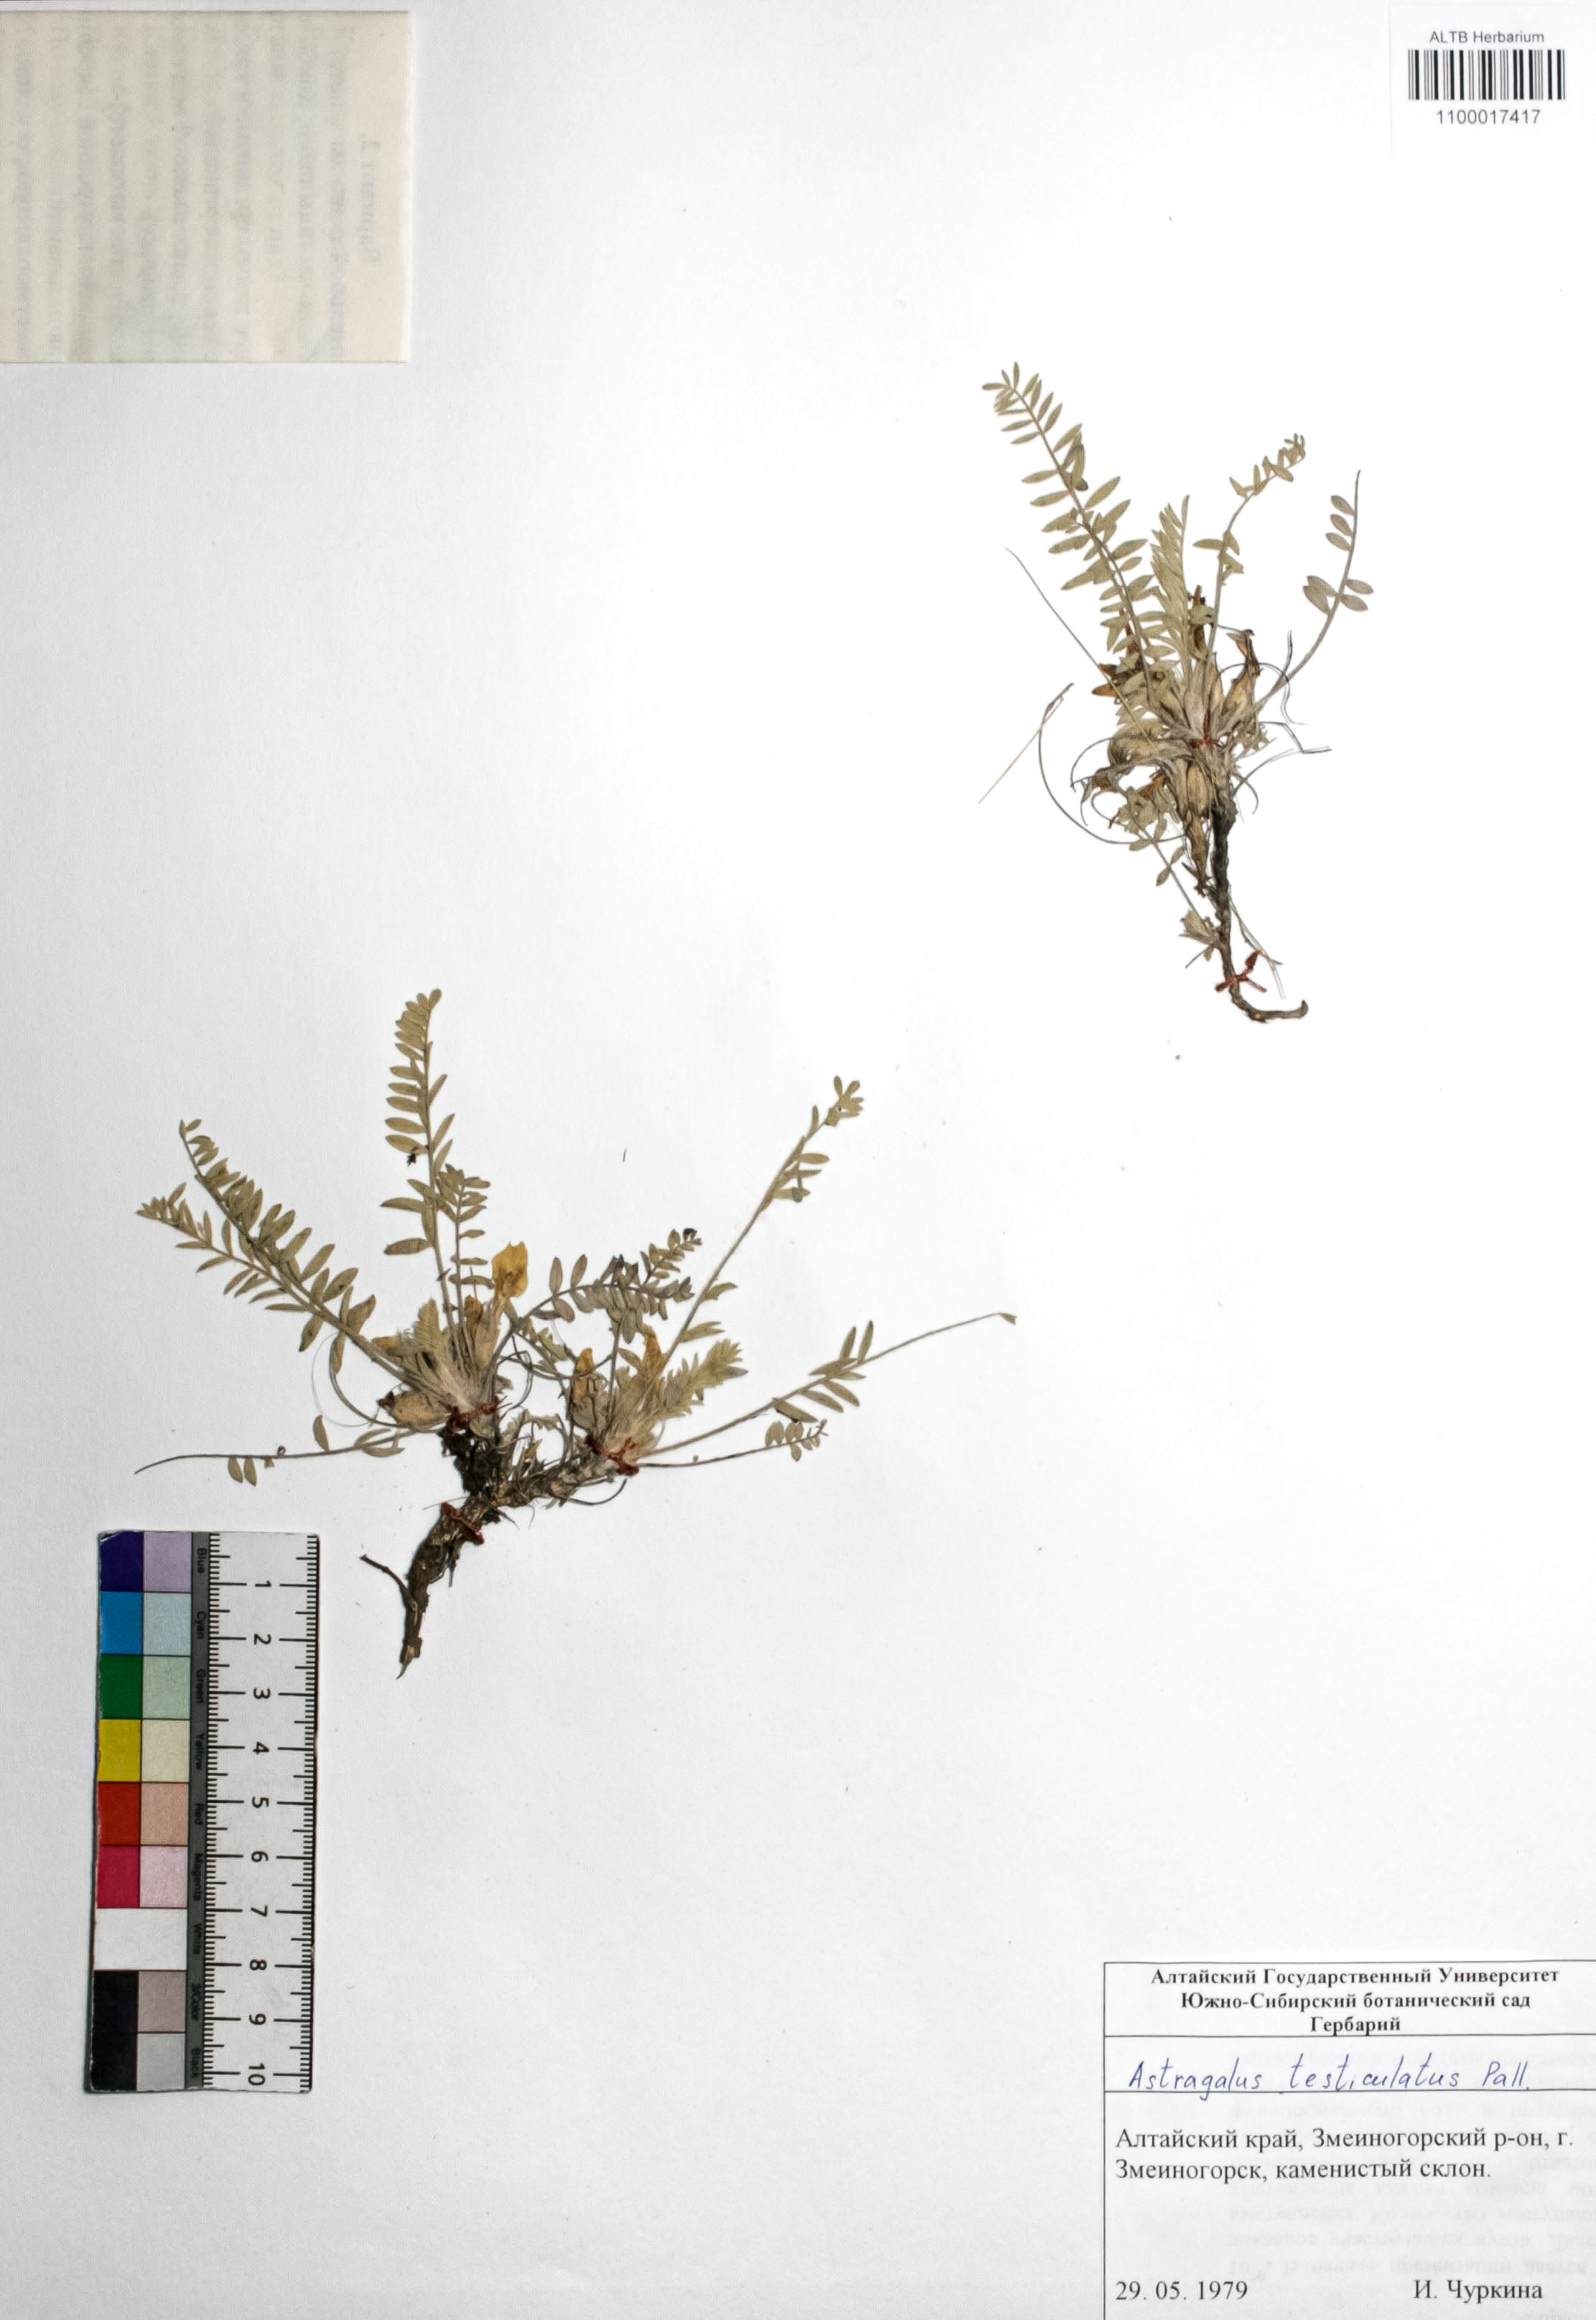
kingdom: Plantae
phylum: Tracheophyta
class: Magnoliopsida
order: Fabales
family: Fabaceae
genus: Astragalus
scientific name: Astragalus testiculatus
